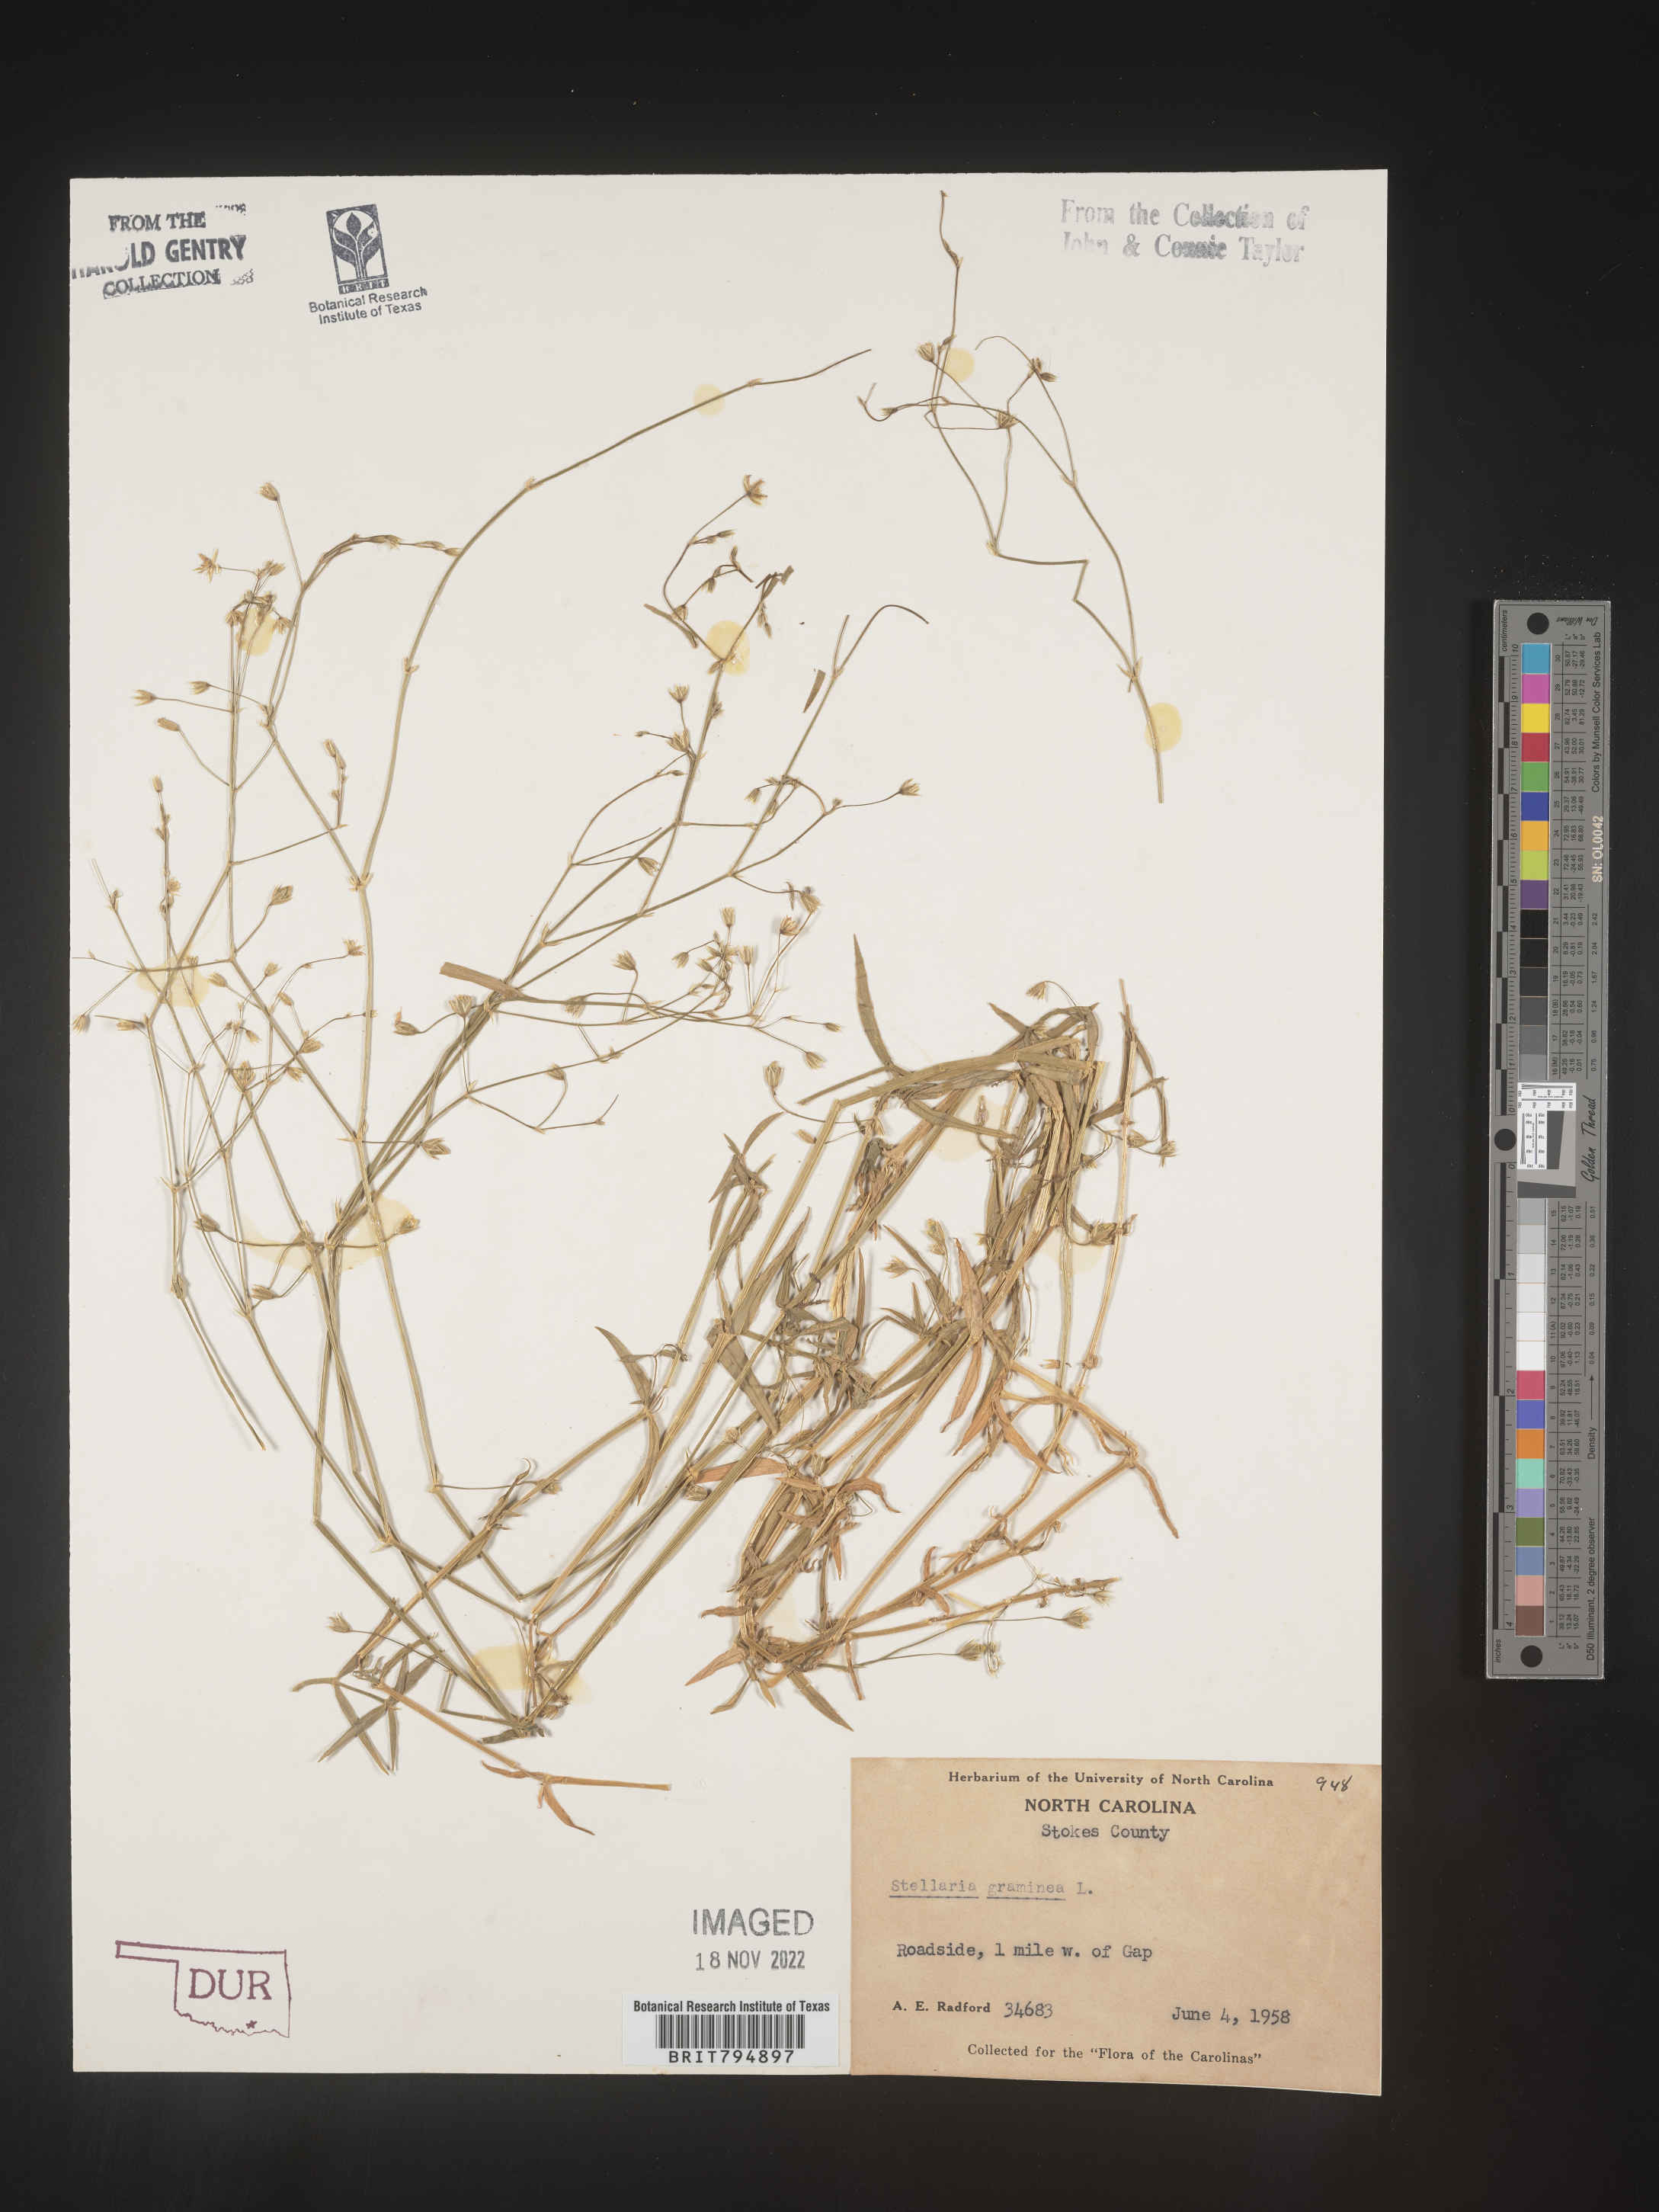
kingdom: Plantae
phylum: Tracheophyta
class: Magnoliopsida
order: Caryophyllales
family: Caryophyllaceae
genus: Stellaria
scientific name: Stellaria graminea
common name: Grass-like starwort
